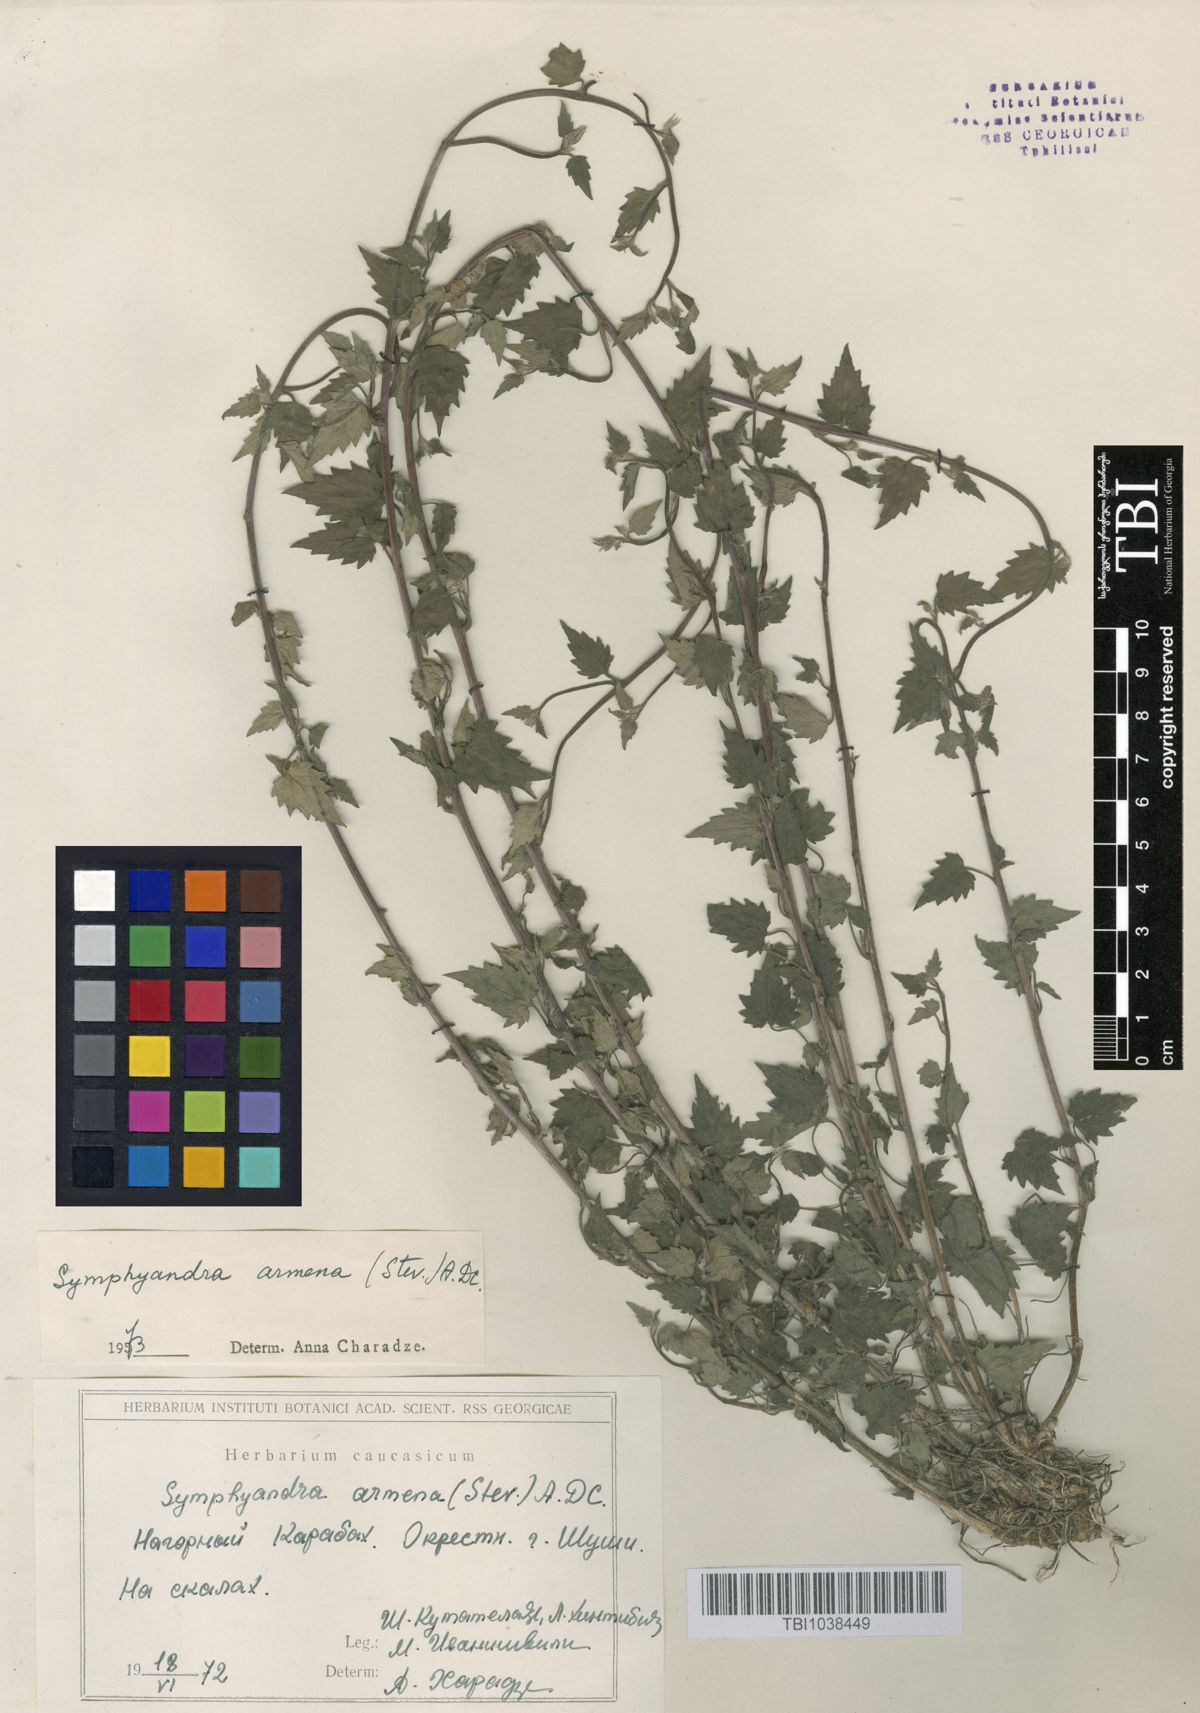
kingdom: Plantae
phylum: Tracheophyta
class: Magnoliopsida
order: Asterales
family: Campanulaceae
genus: Campanula
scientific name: Campanula armena
